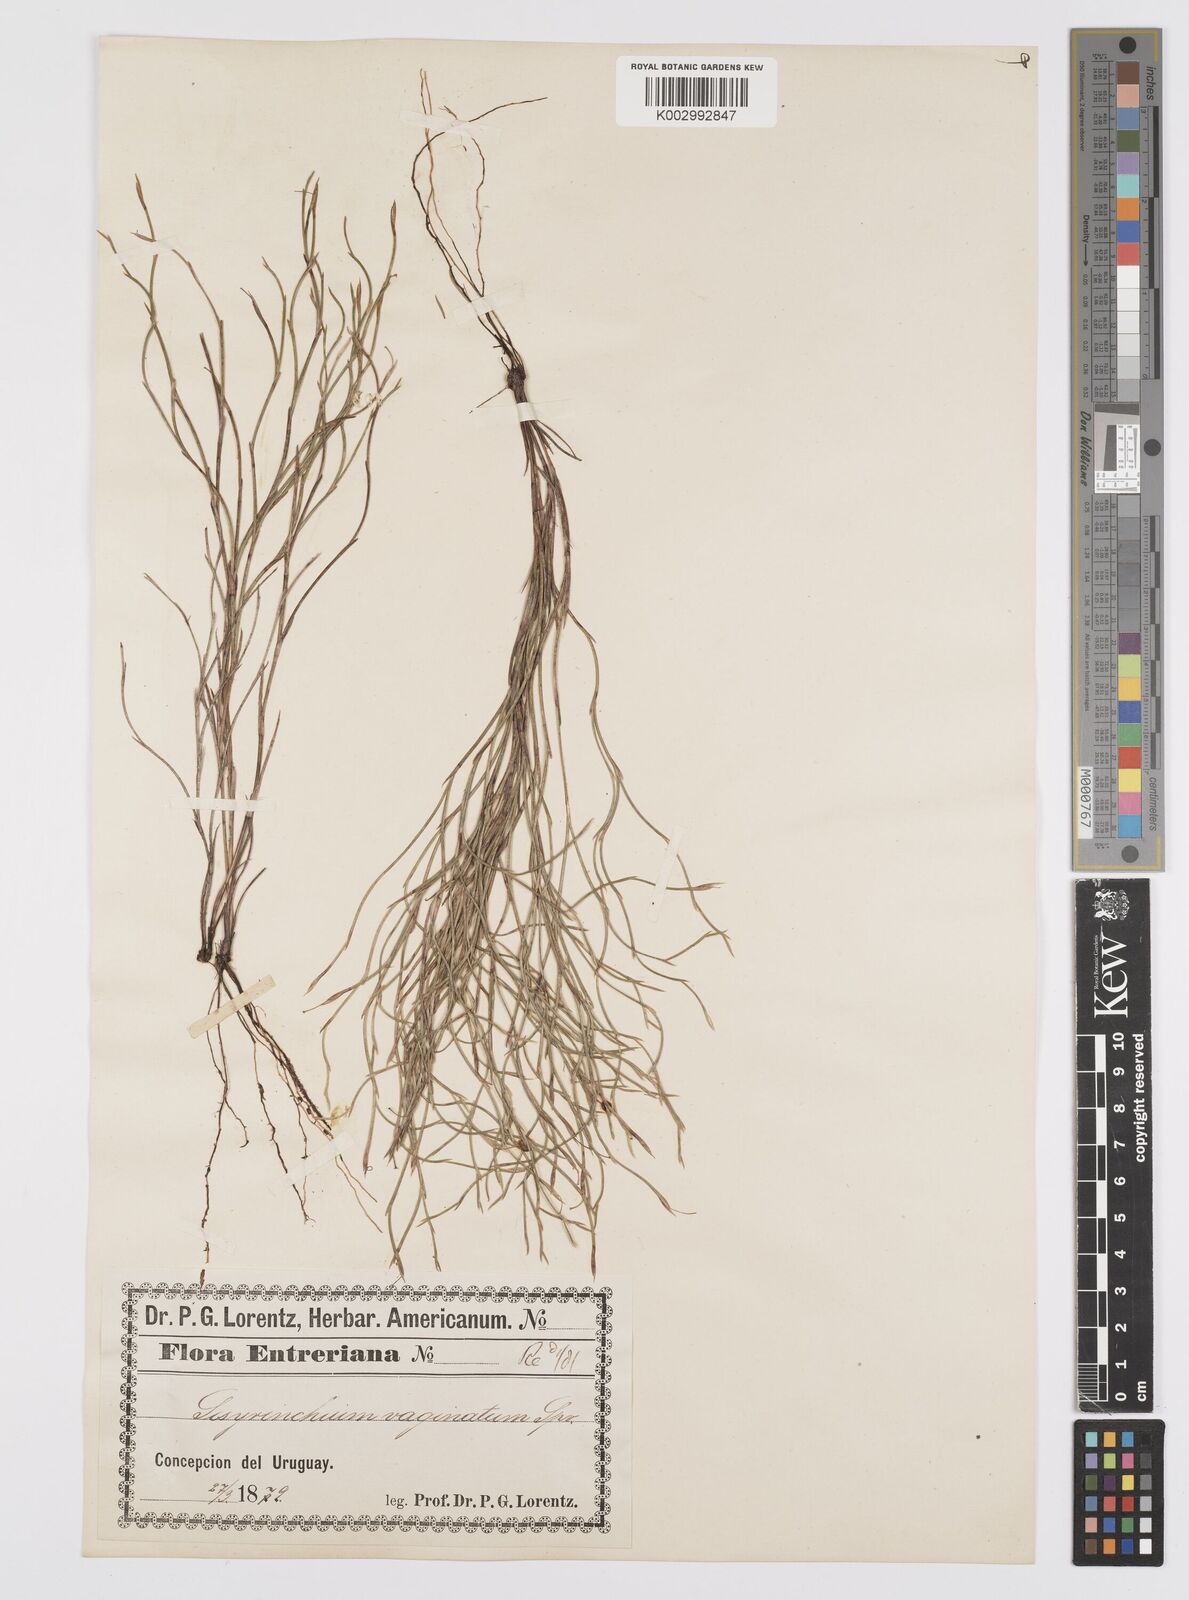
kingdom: Plantae
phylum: Tracheophyta
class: Liliopsida
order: Asparagales
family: Iridaceae
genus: Sisyrinchium
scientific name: Sisyrinchium restioides
